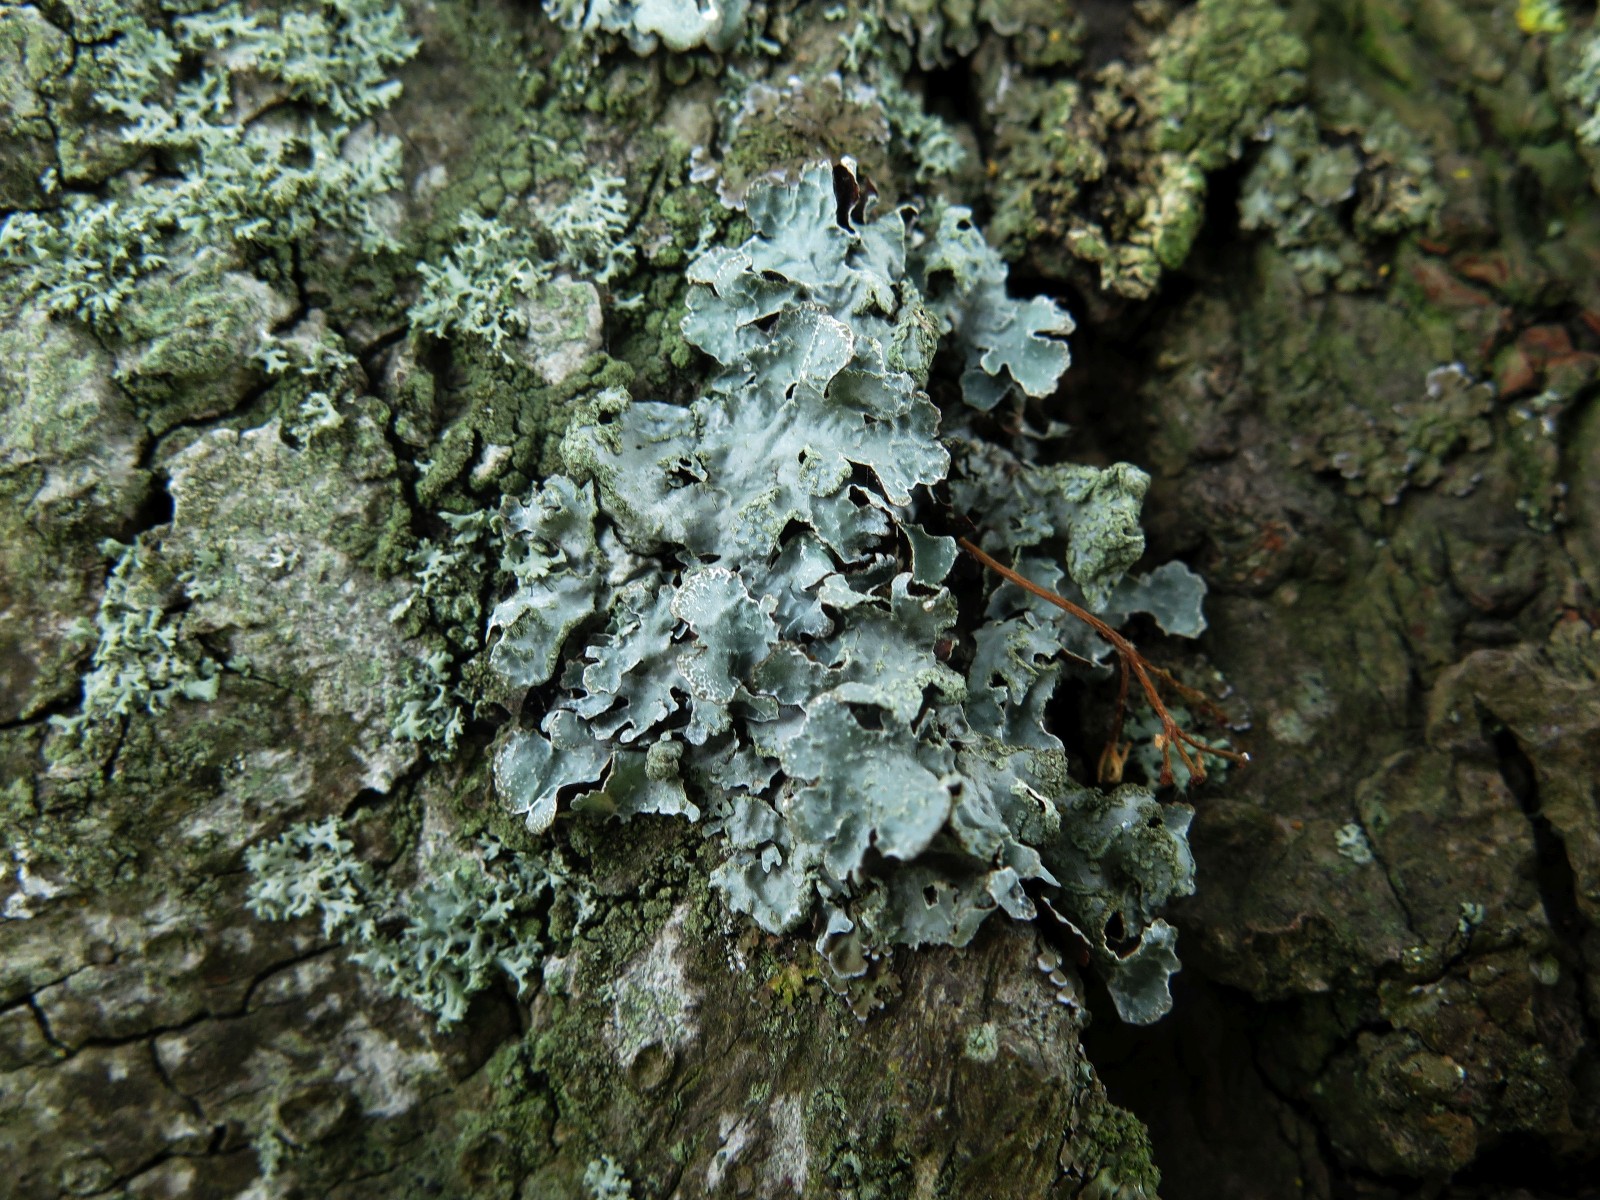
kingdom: Fungi
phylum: Ascomycota
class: Lecanoromycetes
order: Lecanorales
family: Parmeliaceae
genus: Parmelia
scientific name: Parmelia sulcata
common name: rynket skållav
